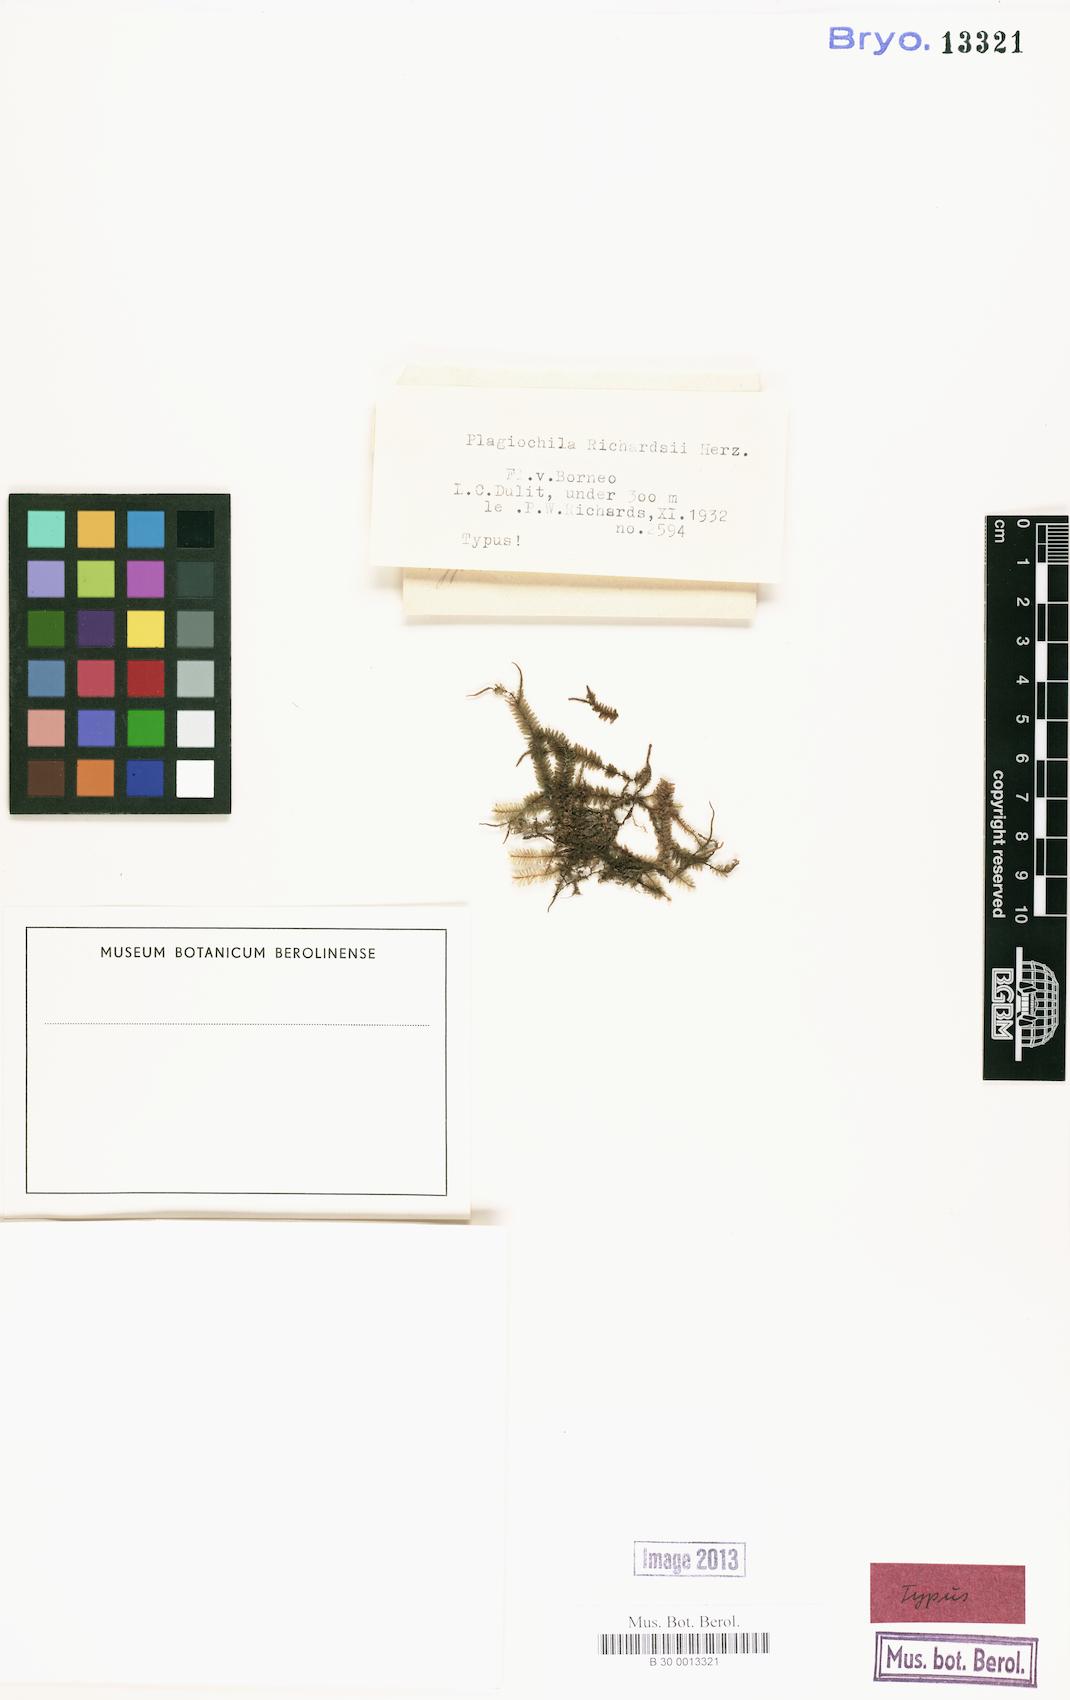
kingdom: Plantae
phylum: Marchantiophyta
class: Jungermanniopsida
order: Jungermanniales
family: Plagiochilaceae
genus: Plagiochila
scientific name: Plagiochila bantamensis
